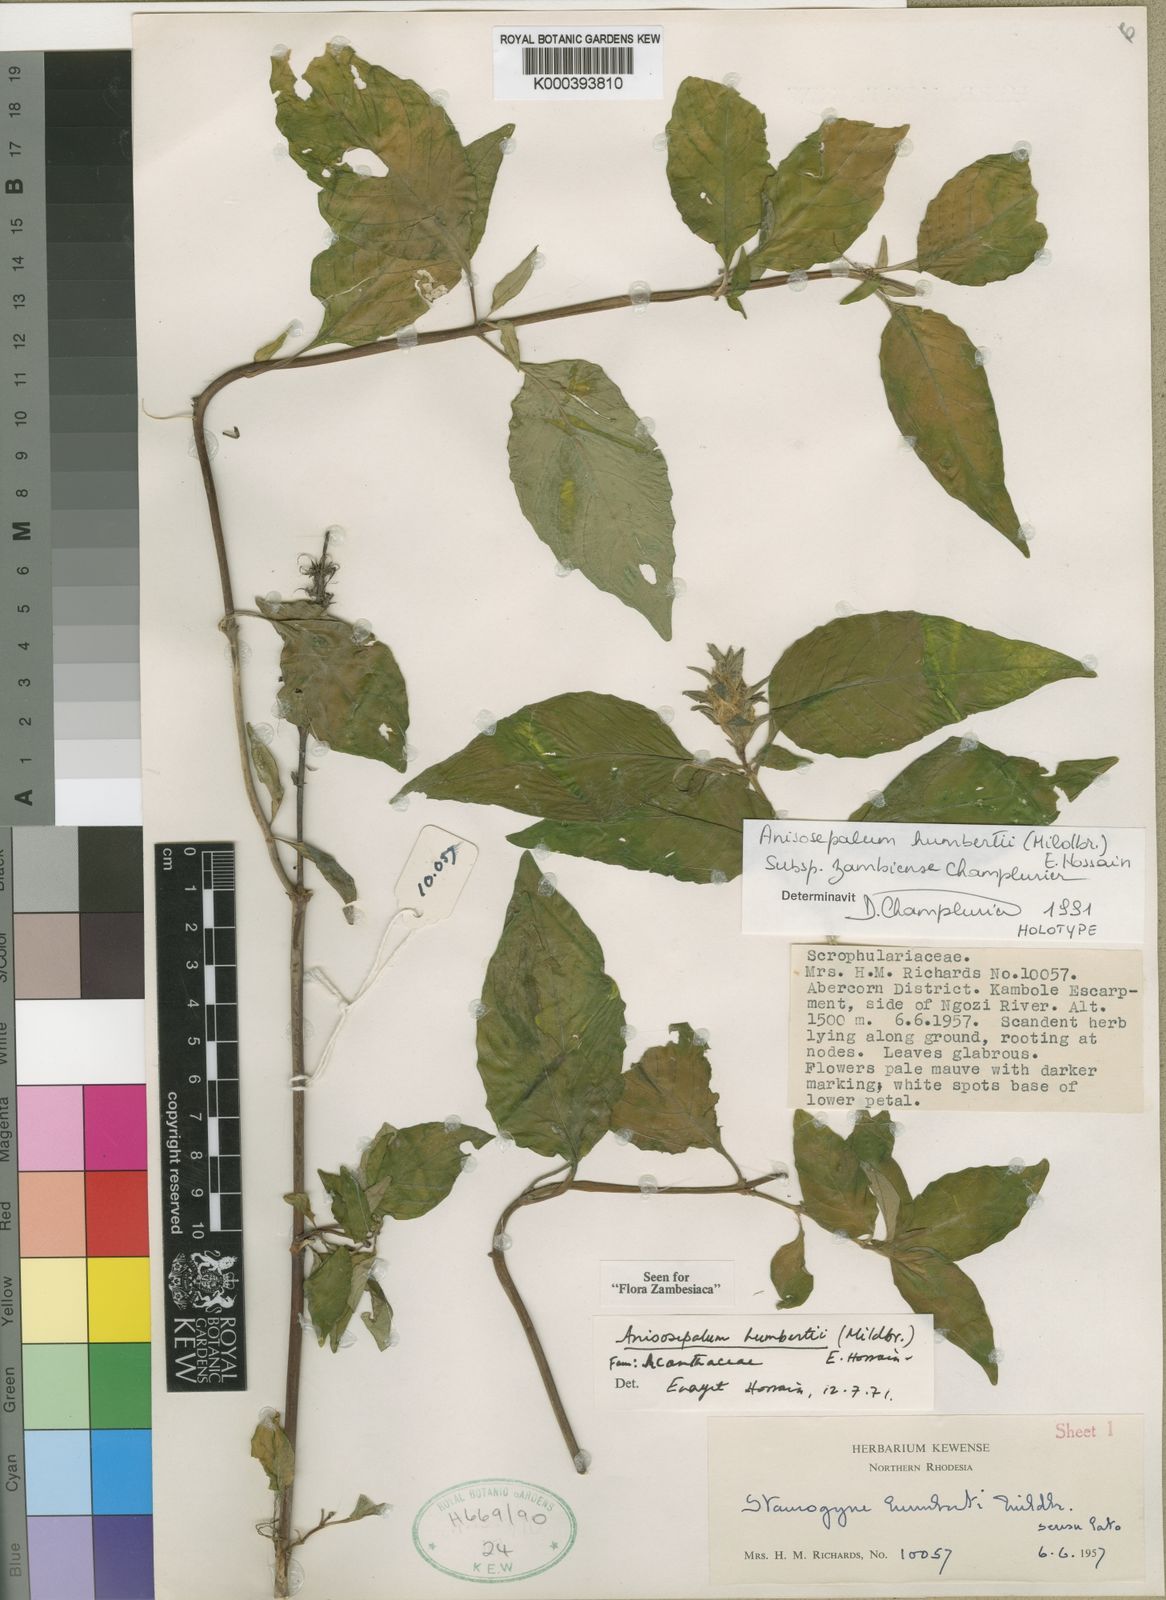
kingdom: Plantae
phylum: Tracheophyta
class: Magnoliopsida
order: Lamiales
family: Acanthaceae
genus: Anisosepalum
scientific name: Anisosepalum humbertii
